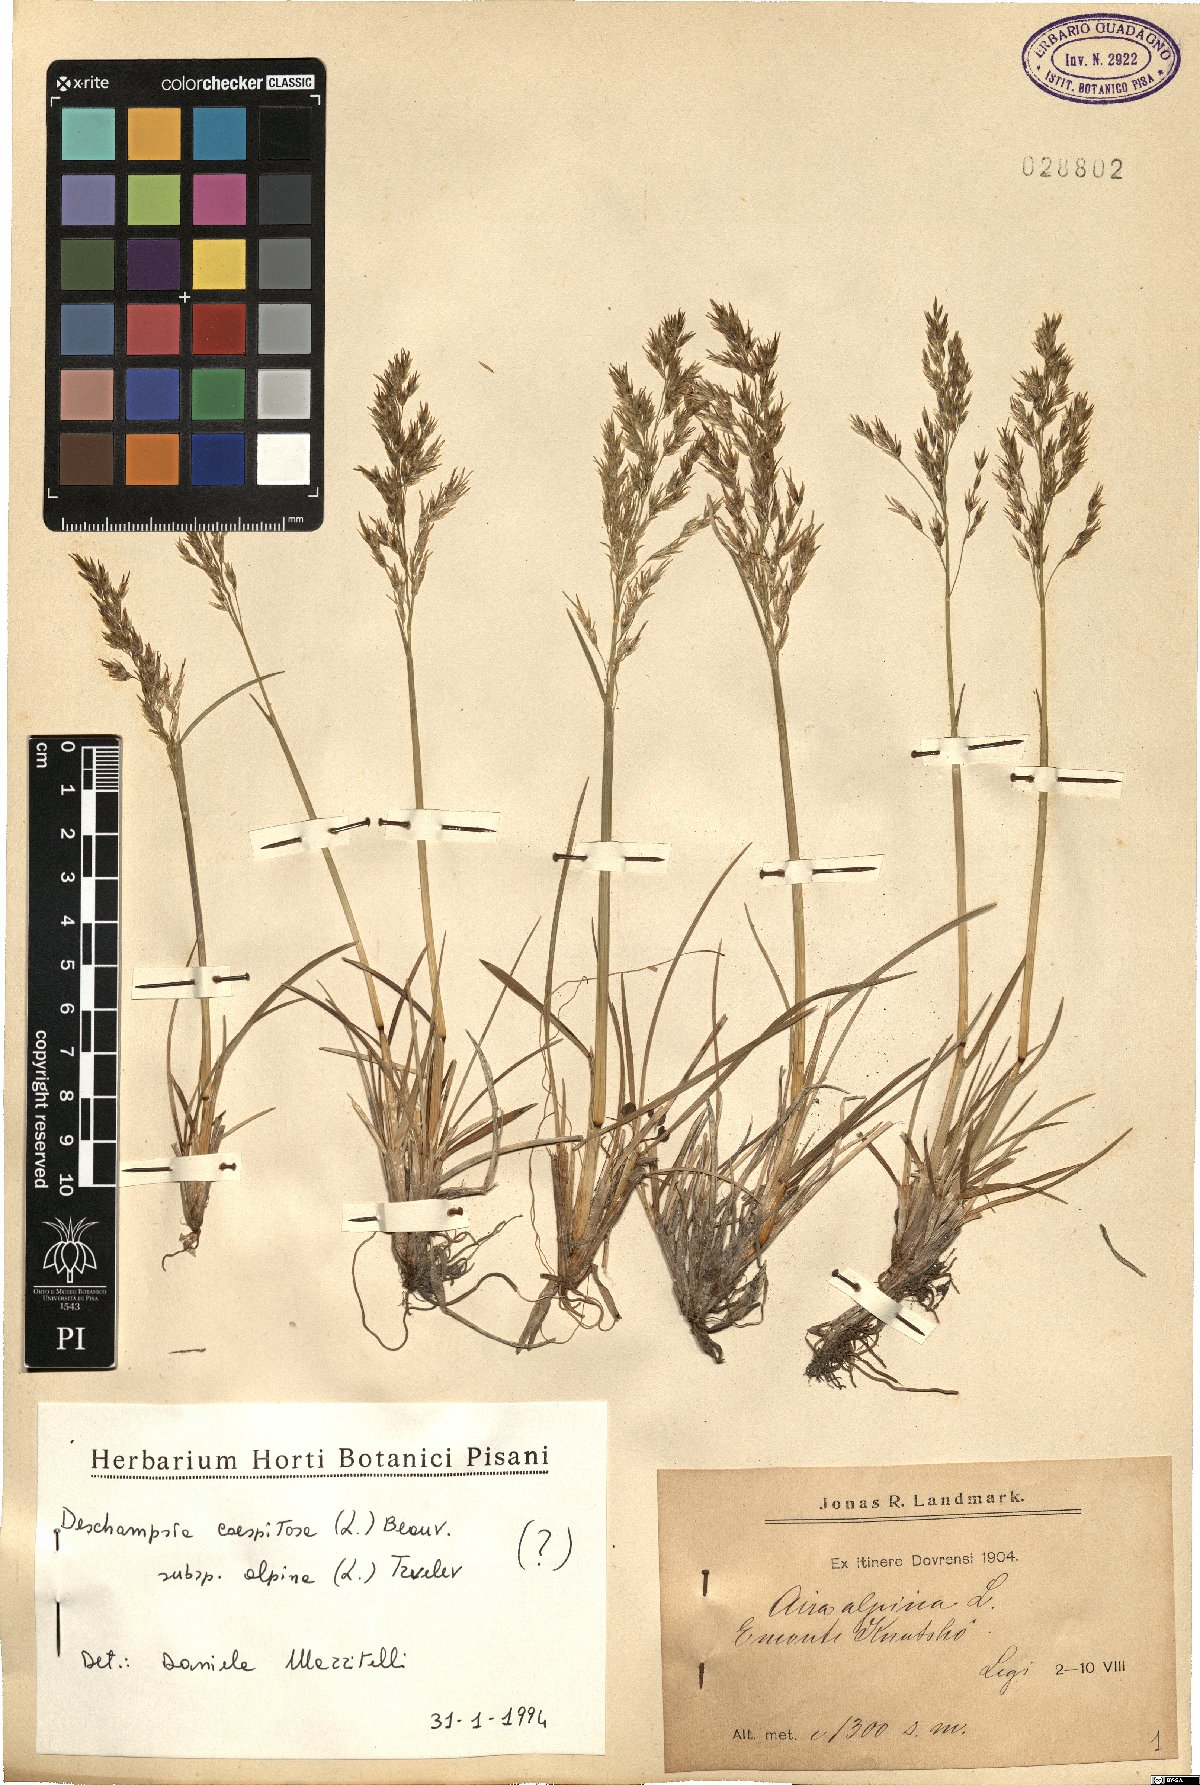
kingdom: Plantae
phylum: Tracheophyta
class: Liliopsida
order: Poales
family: Poaceae
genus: Deschampsia
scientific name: Deschampsia cespitosa
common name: Tufted hair-grass
